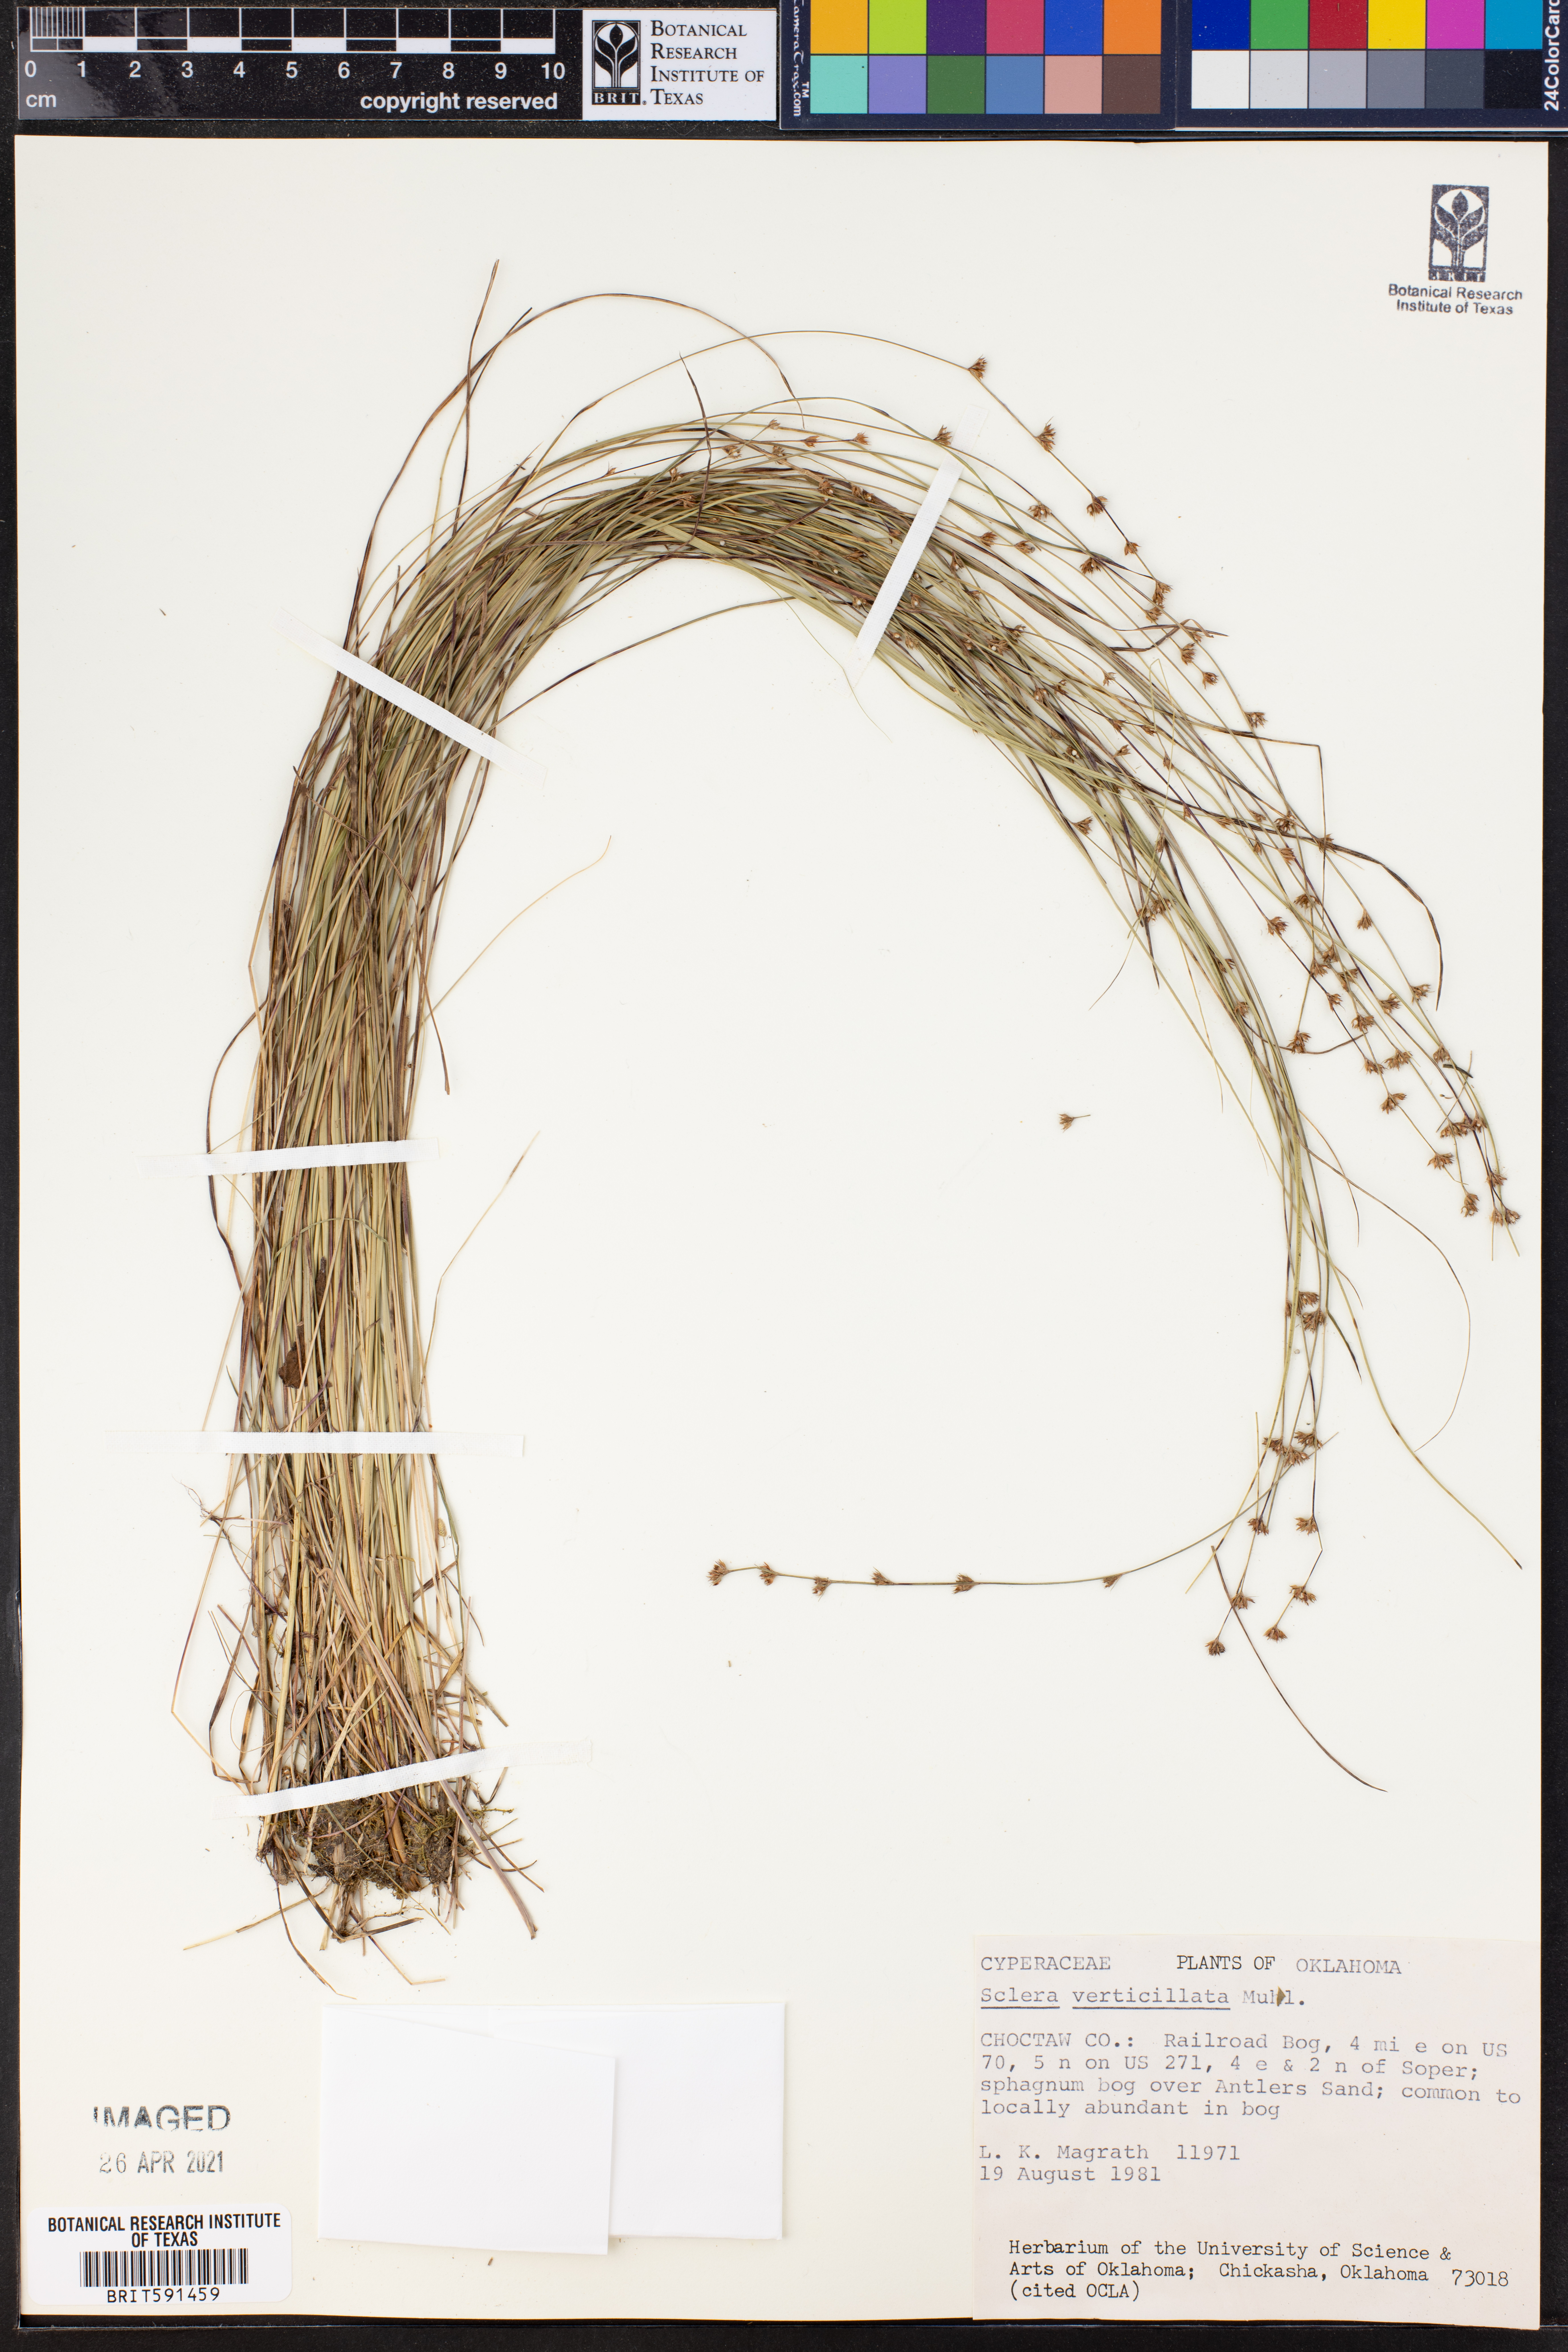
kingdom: Plantae
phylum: Tracheophyta
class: Liliopsida
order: Poales
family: Cyperaceae
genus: Scleria
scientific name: Scleria verticillata
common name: Low nutrush
